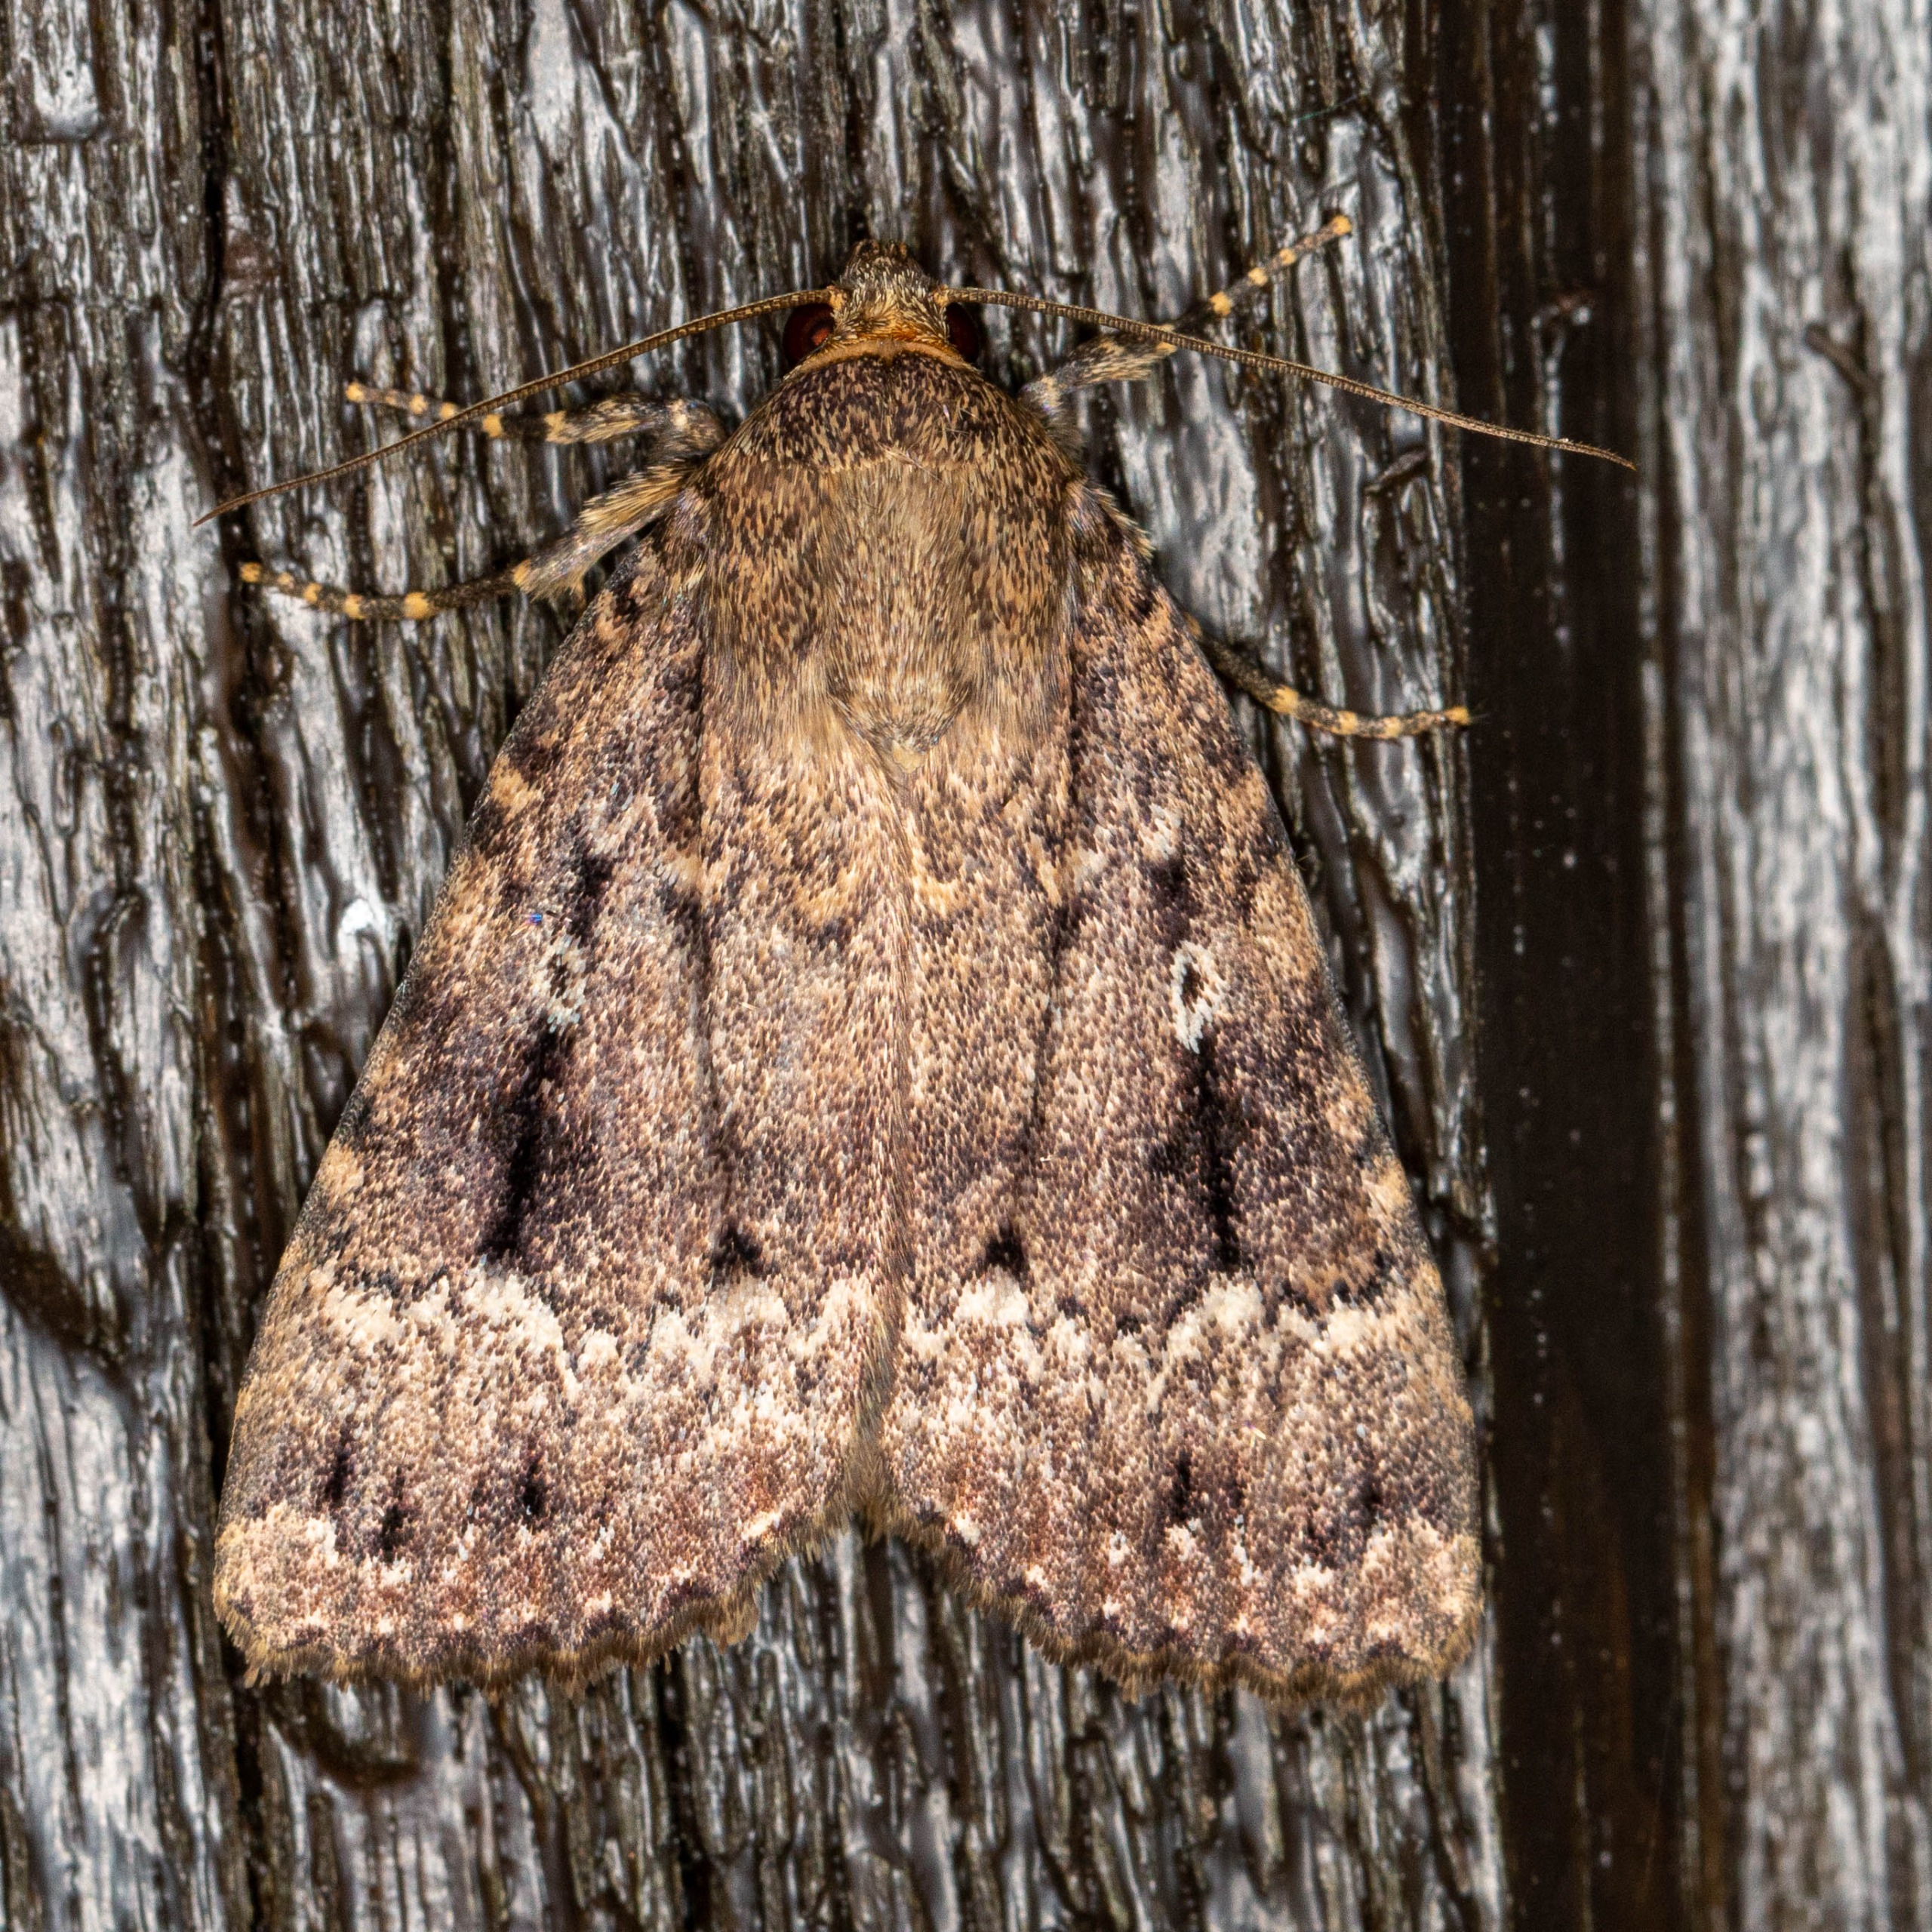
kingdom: Animalia
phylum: Arthropoda
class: Insecta
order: Lepidoptera
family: Noctuidae
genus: Amphipyra
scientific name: Amphipyra pyramidea
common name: Pyramideugle
